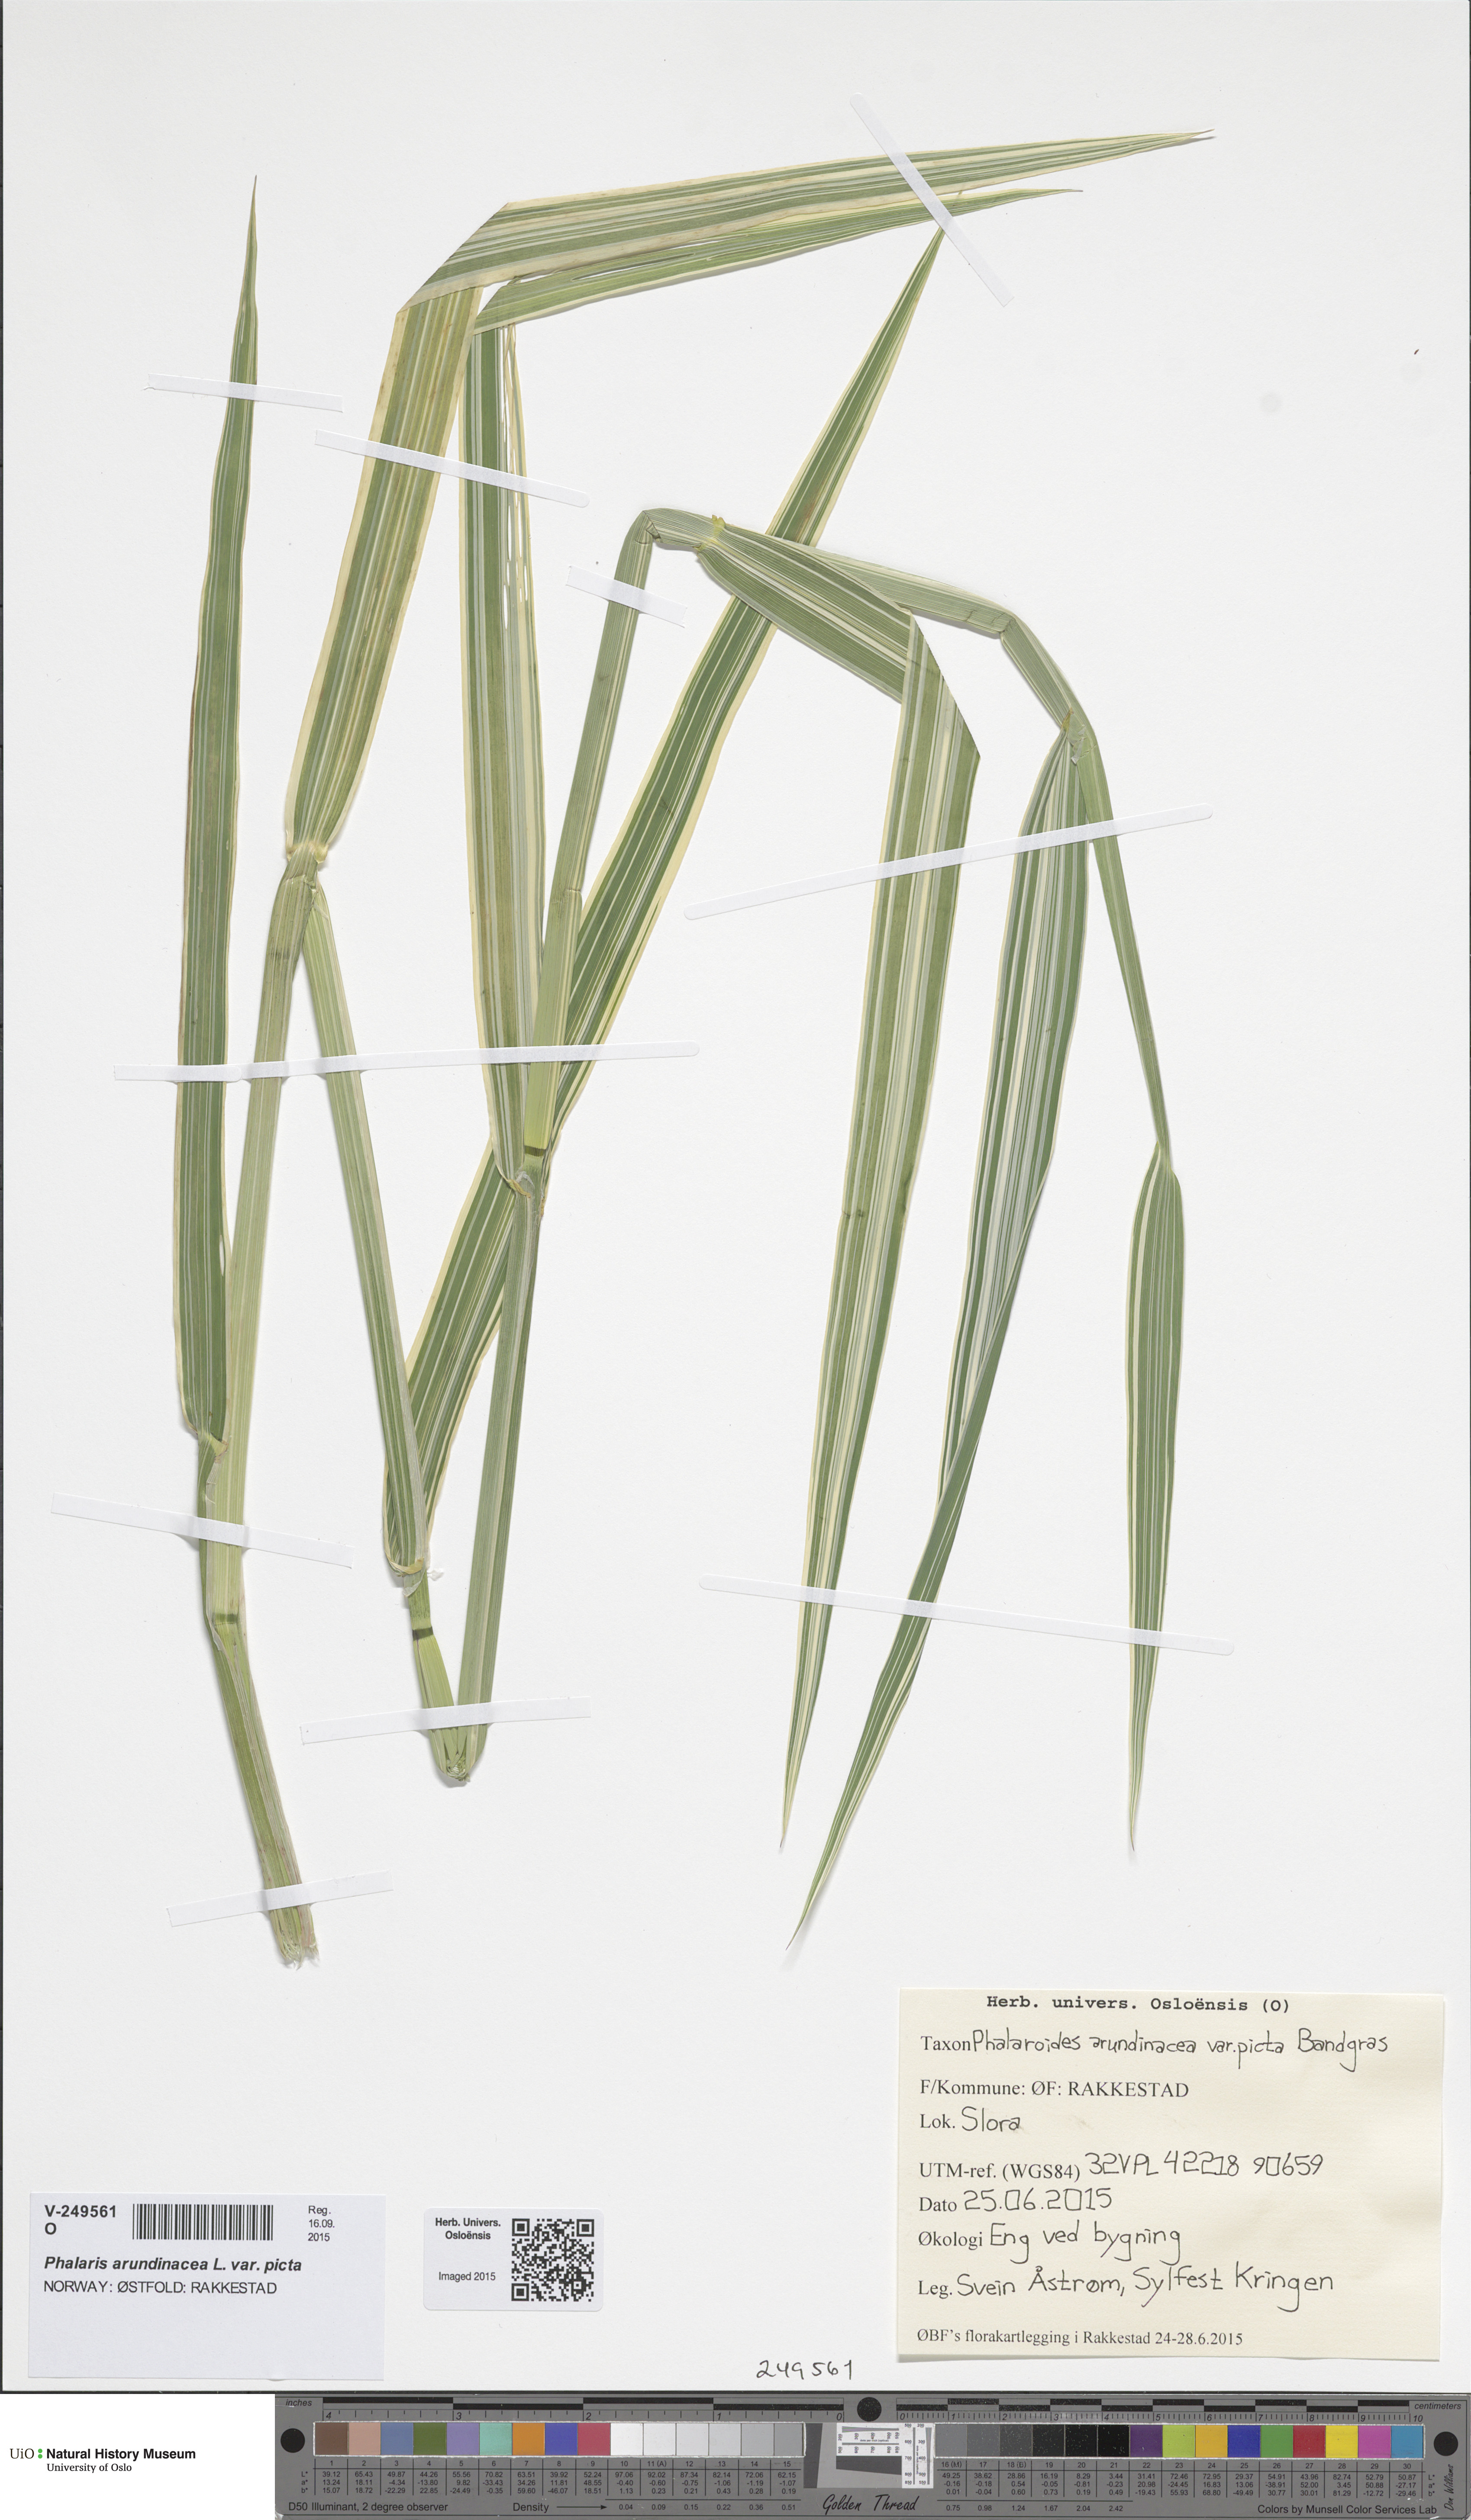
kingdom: Plantae
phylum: Tracheophyta
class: Liliopsida
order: Poales
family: Poaceae
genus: Phalaris
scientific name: Phalaris arundinacea
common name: Reed canary-grass
